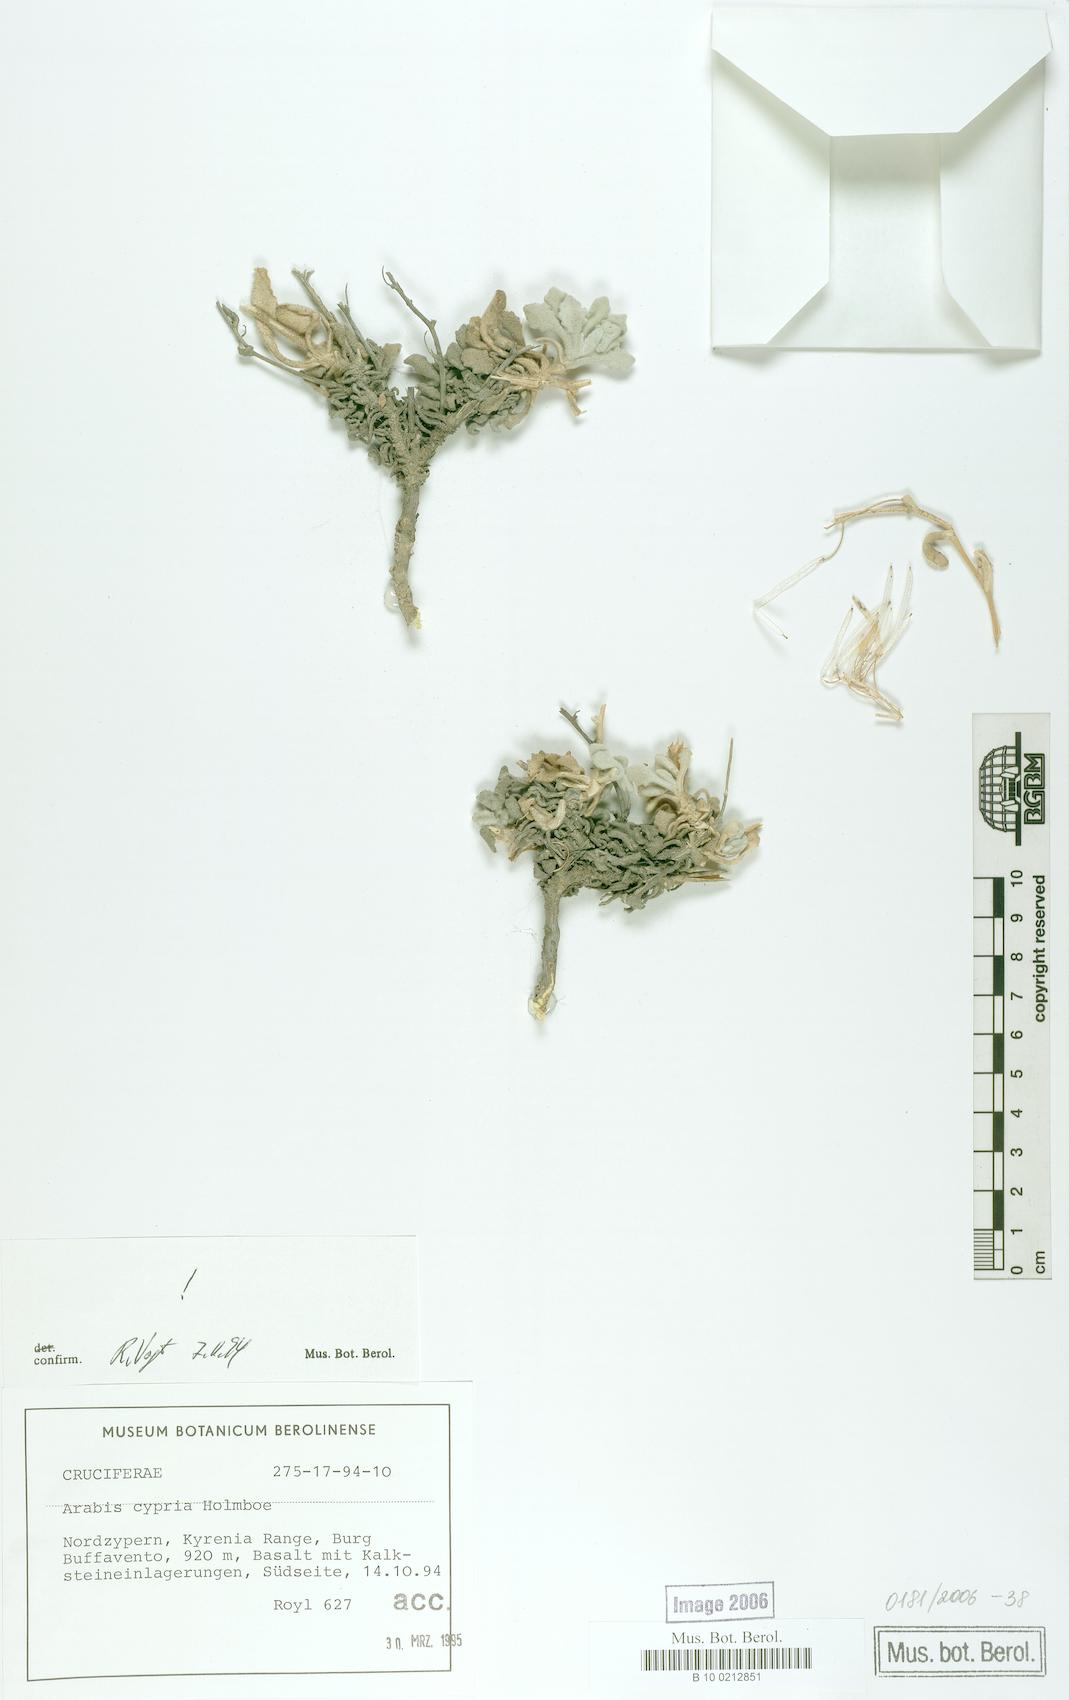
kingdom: Plantae
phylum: Tracheophyta
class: Magnoliopsida
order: Brassicales
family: Brassicaceae
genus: Arabis
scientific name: Arabis cypria
